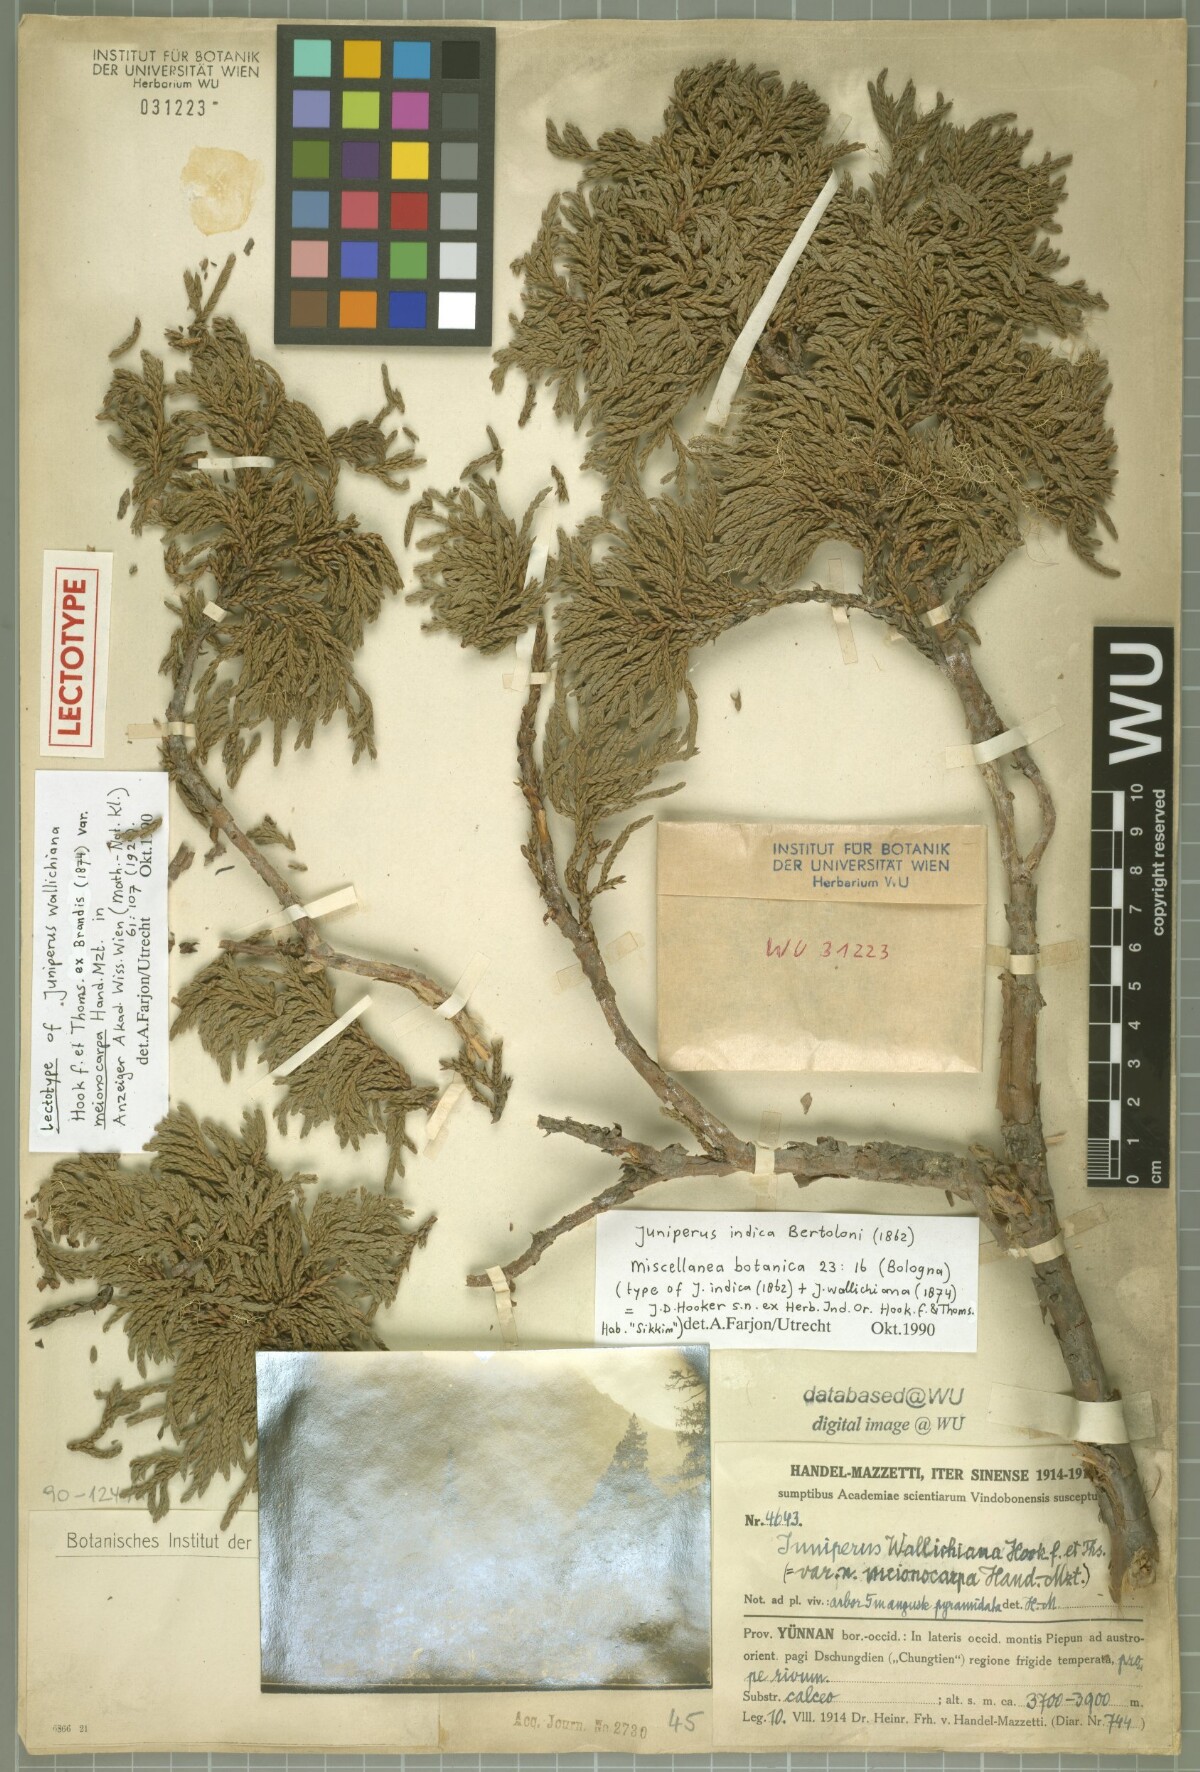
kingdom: Plantae
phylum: Tracheophyta
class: Pinopsida
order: Pinales
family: Cupressaceae
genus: Juniperus
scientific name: Juniperus indica
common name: Black juniper
